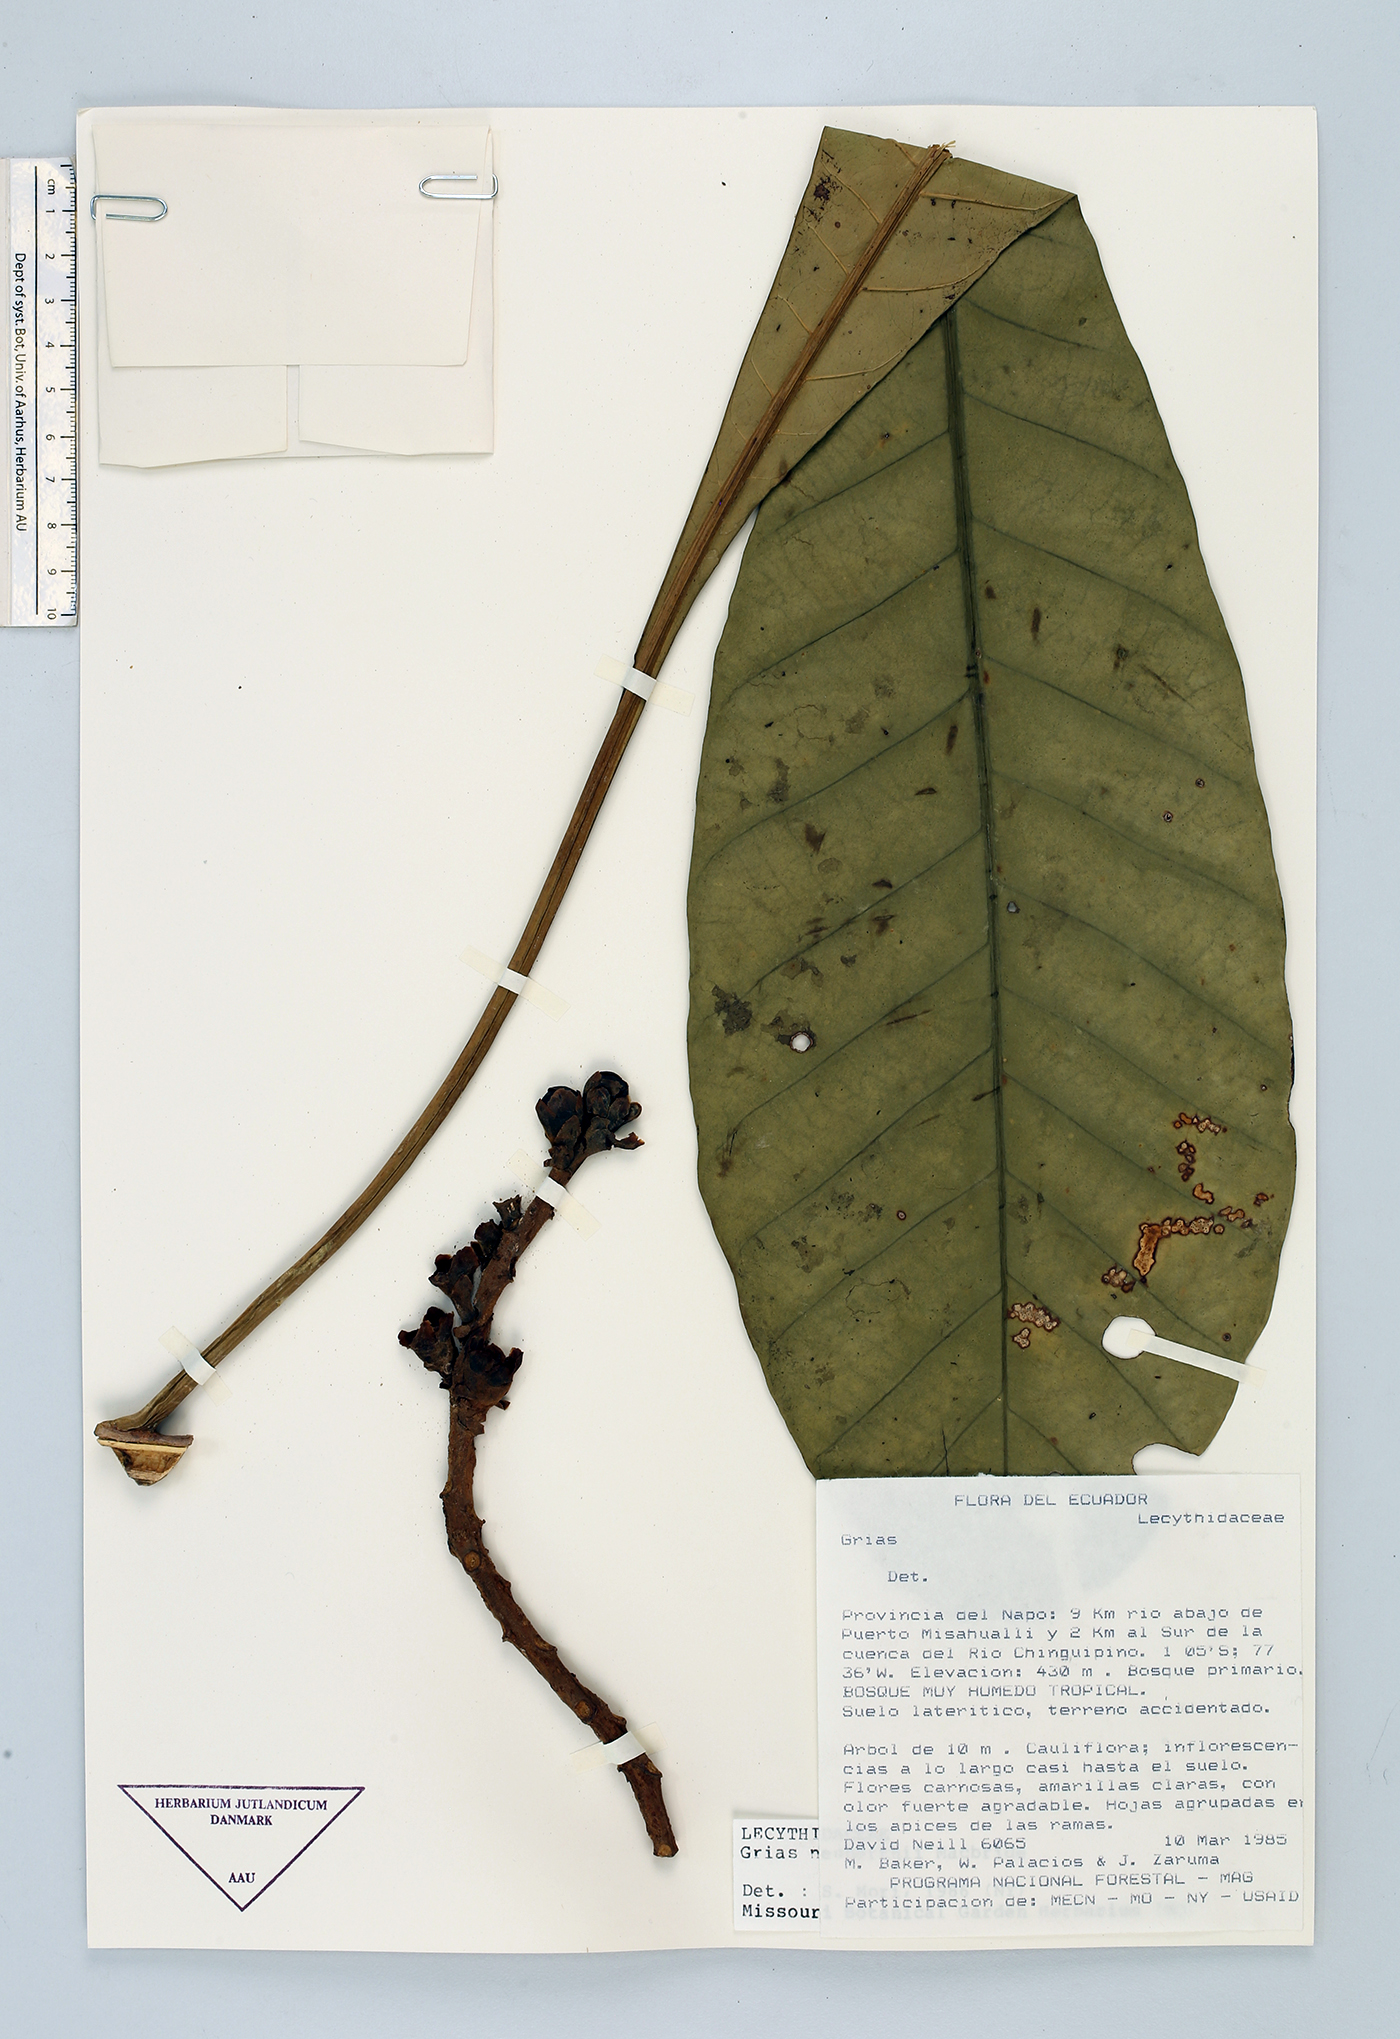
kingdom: Plantae
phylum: Tracheophyta
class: Magnoliopsida
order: Ericales
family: Lecythidaceae
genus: Grias
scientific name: Grias neuberthii
